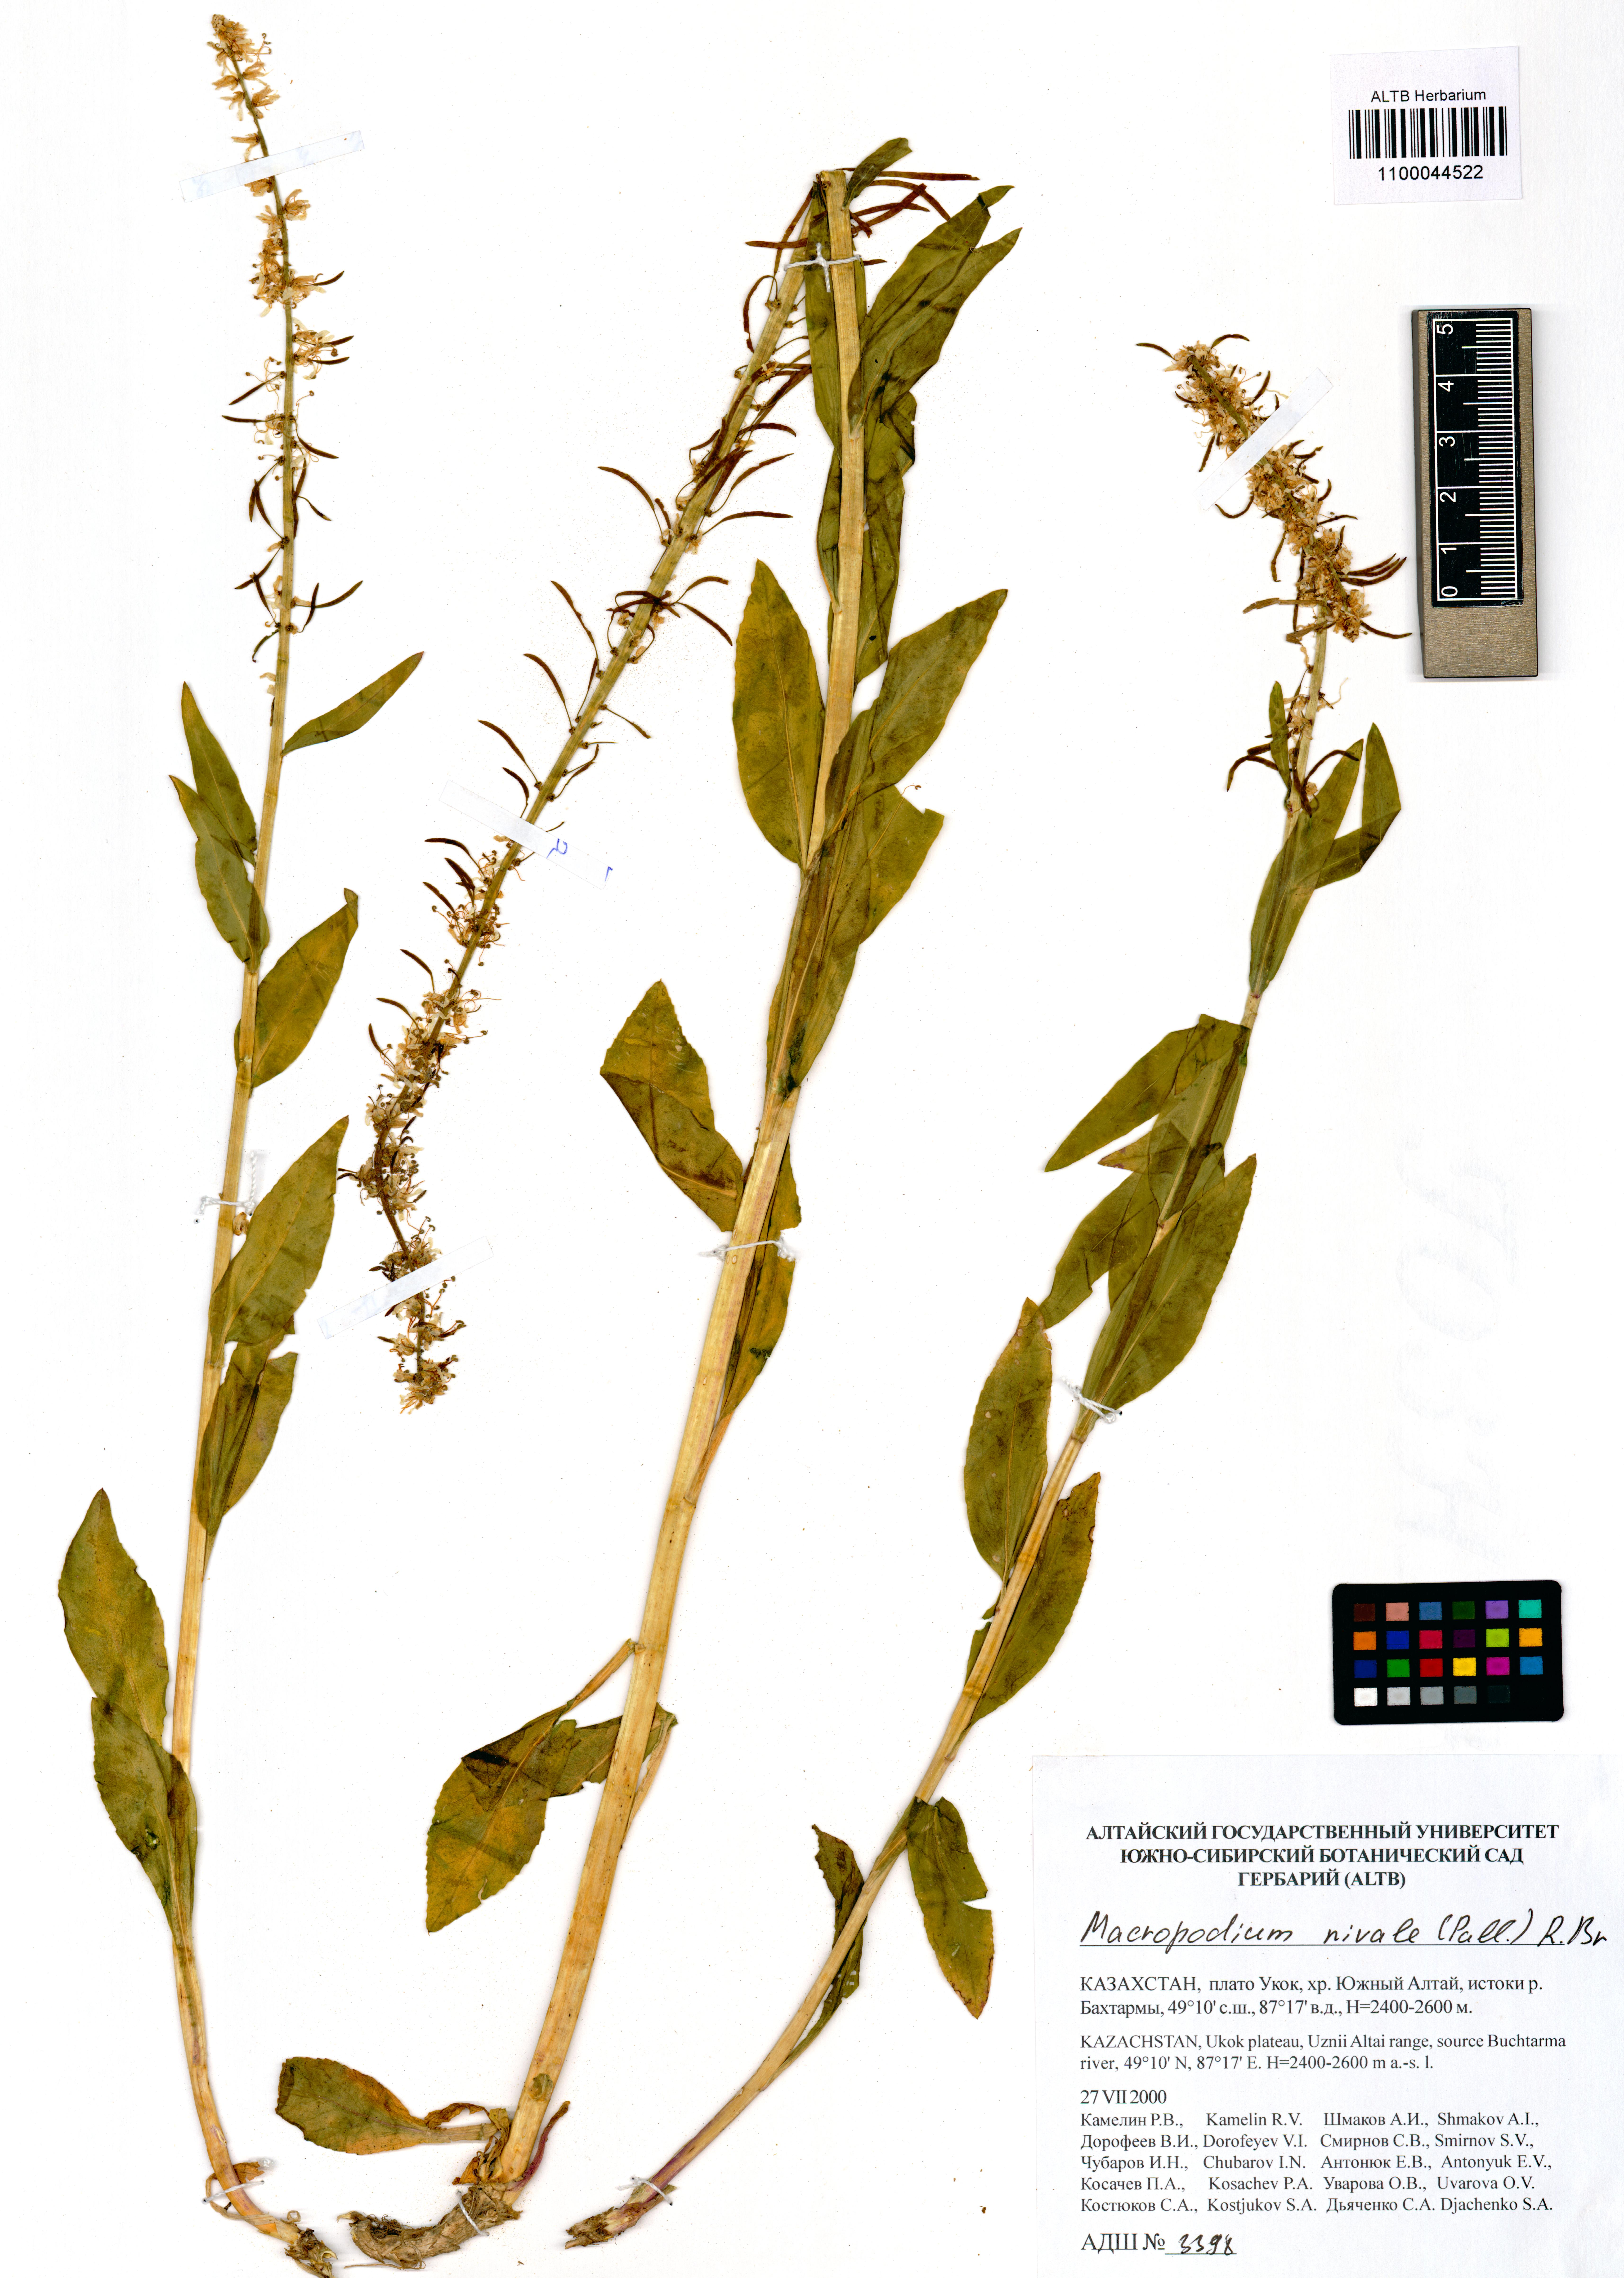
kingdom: Plantae
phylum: Tracheophyta
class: Magnoliopsida
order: Brassicales
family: Brassicaceae
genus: Macropodium
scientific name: Macropodium nivale
